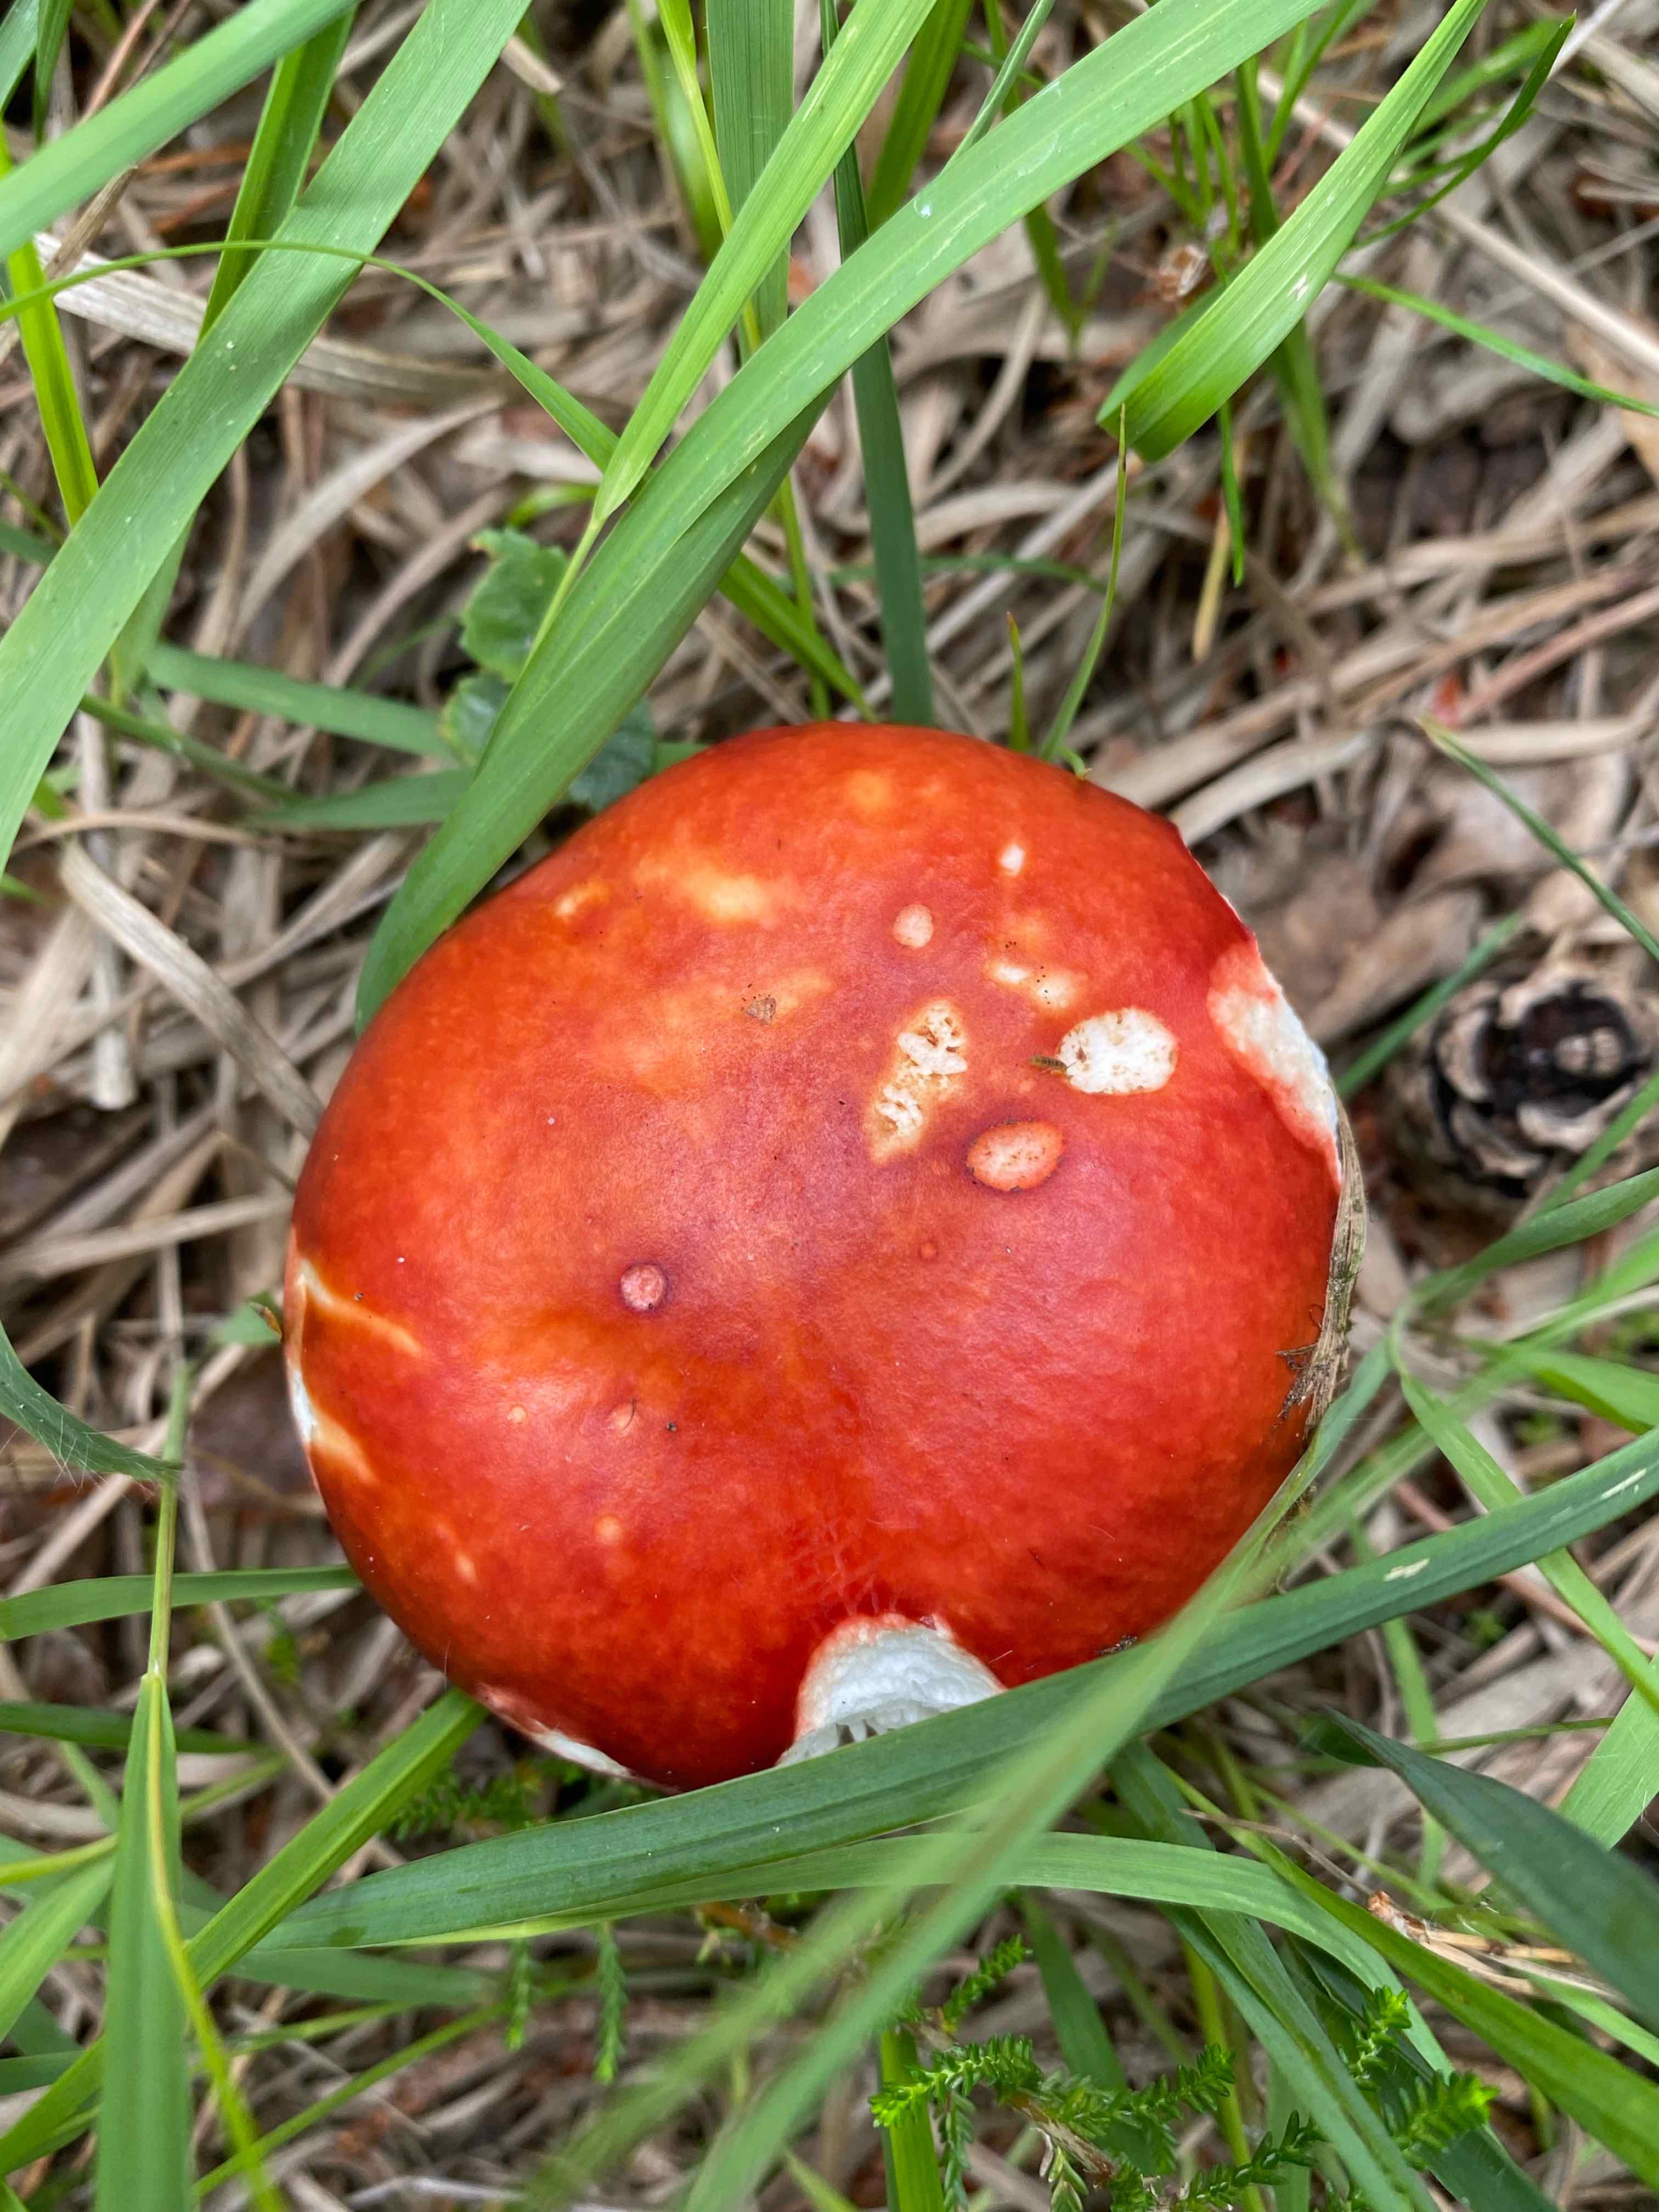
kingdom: Fungi
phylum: Basidiomycota
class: Agaricomycetes
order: Russulales
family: Russulaceae
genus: Russula
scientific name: Russula paludosa
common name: prægtig skørhat
